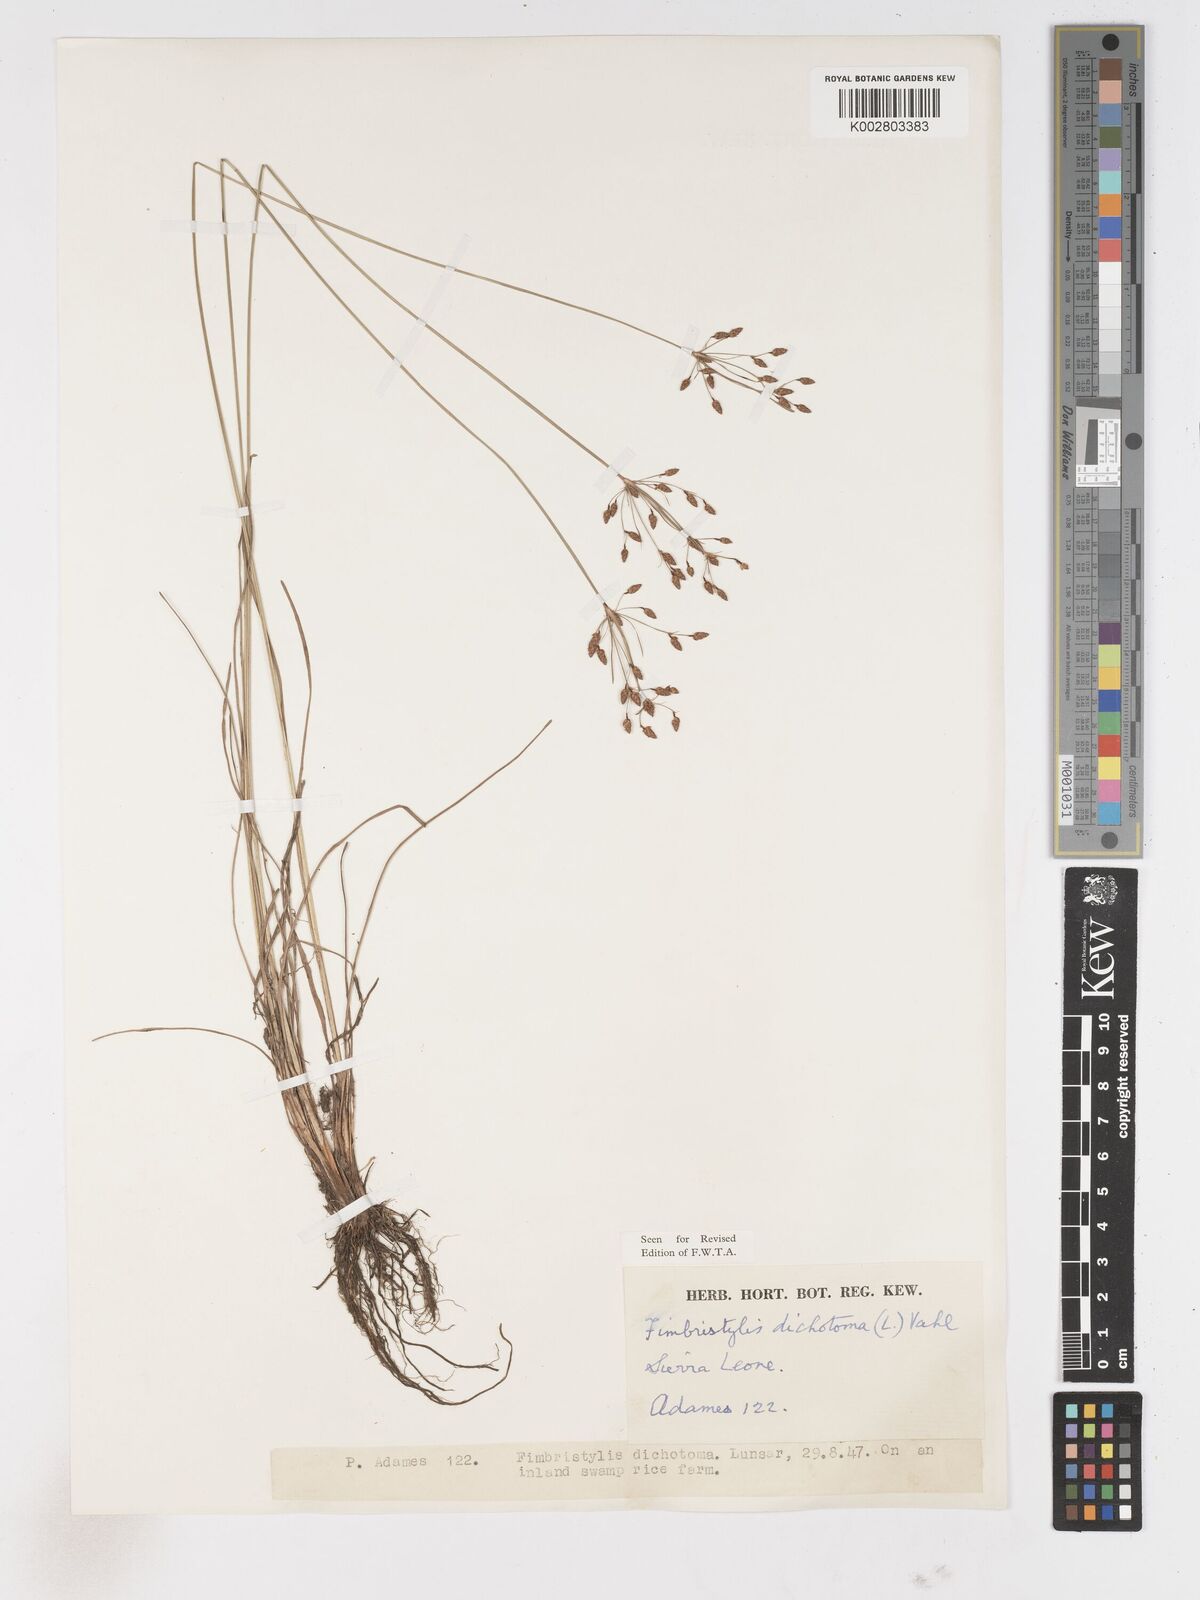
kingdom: Plantae
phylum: Tracheophyta
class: Liliopsida
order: Poales
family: Cyperaceae
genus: Fimbristylis
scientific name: Fimbristylis dichotoma
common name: Forked fimbry
